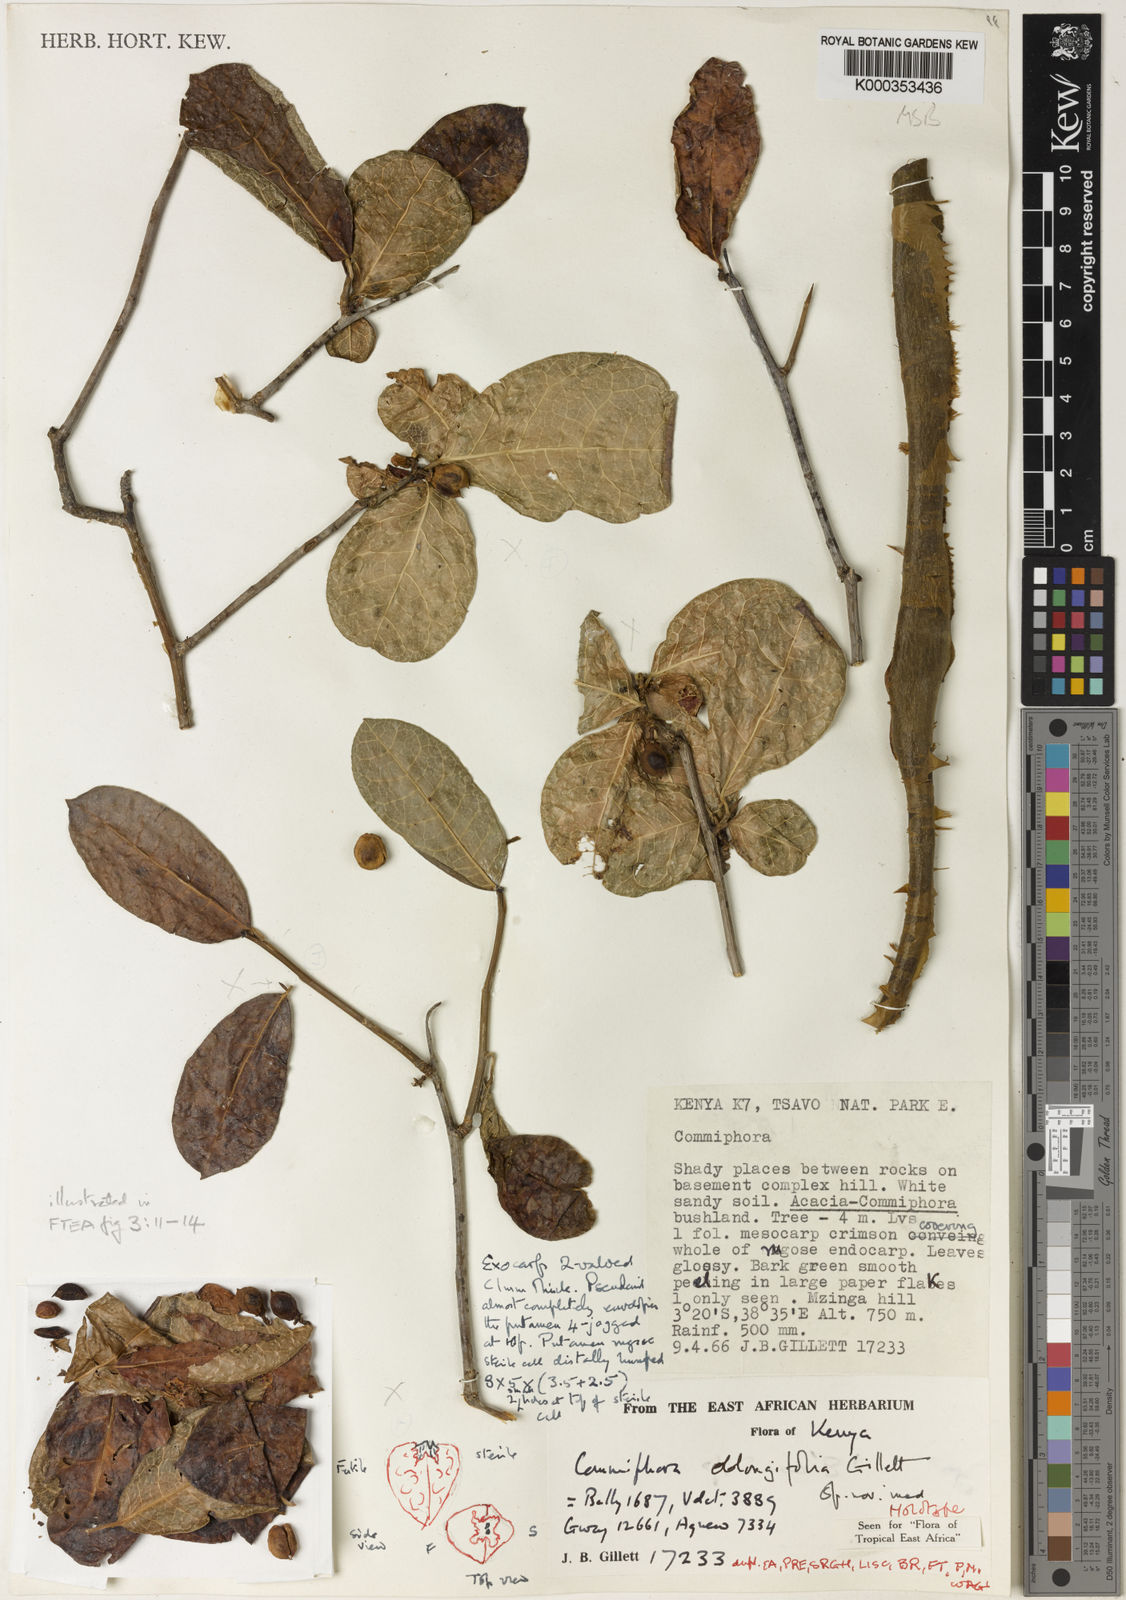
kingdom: Plantae
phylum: Tracheophyta
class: Magnoliopsida
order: Sapindales
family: Burseraceae
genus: Commiphora
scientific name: Commiphora oblongifolia
